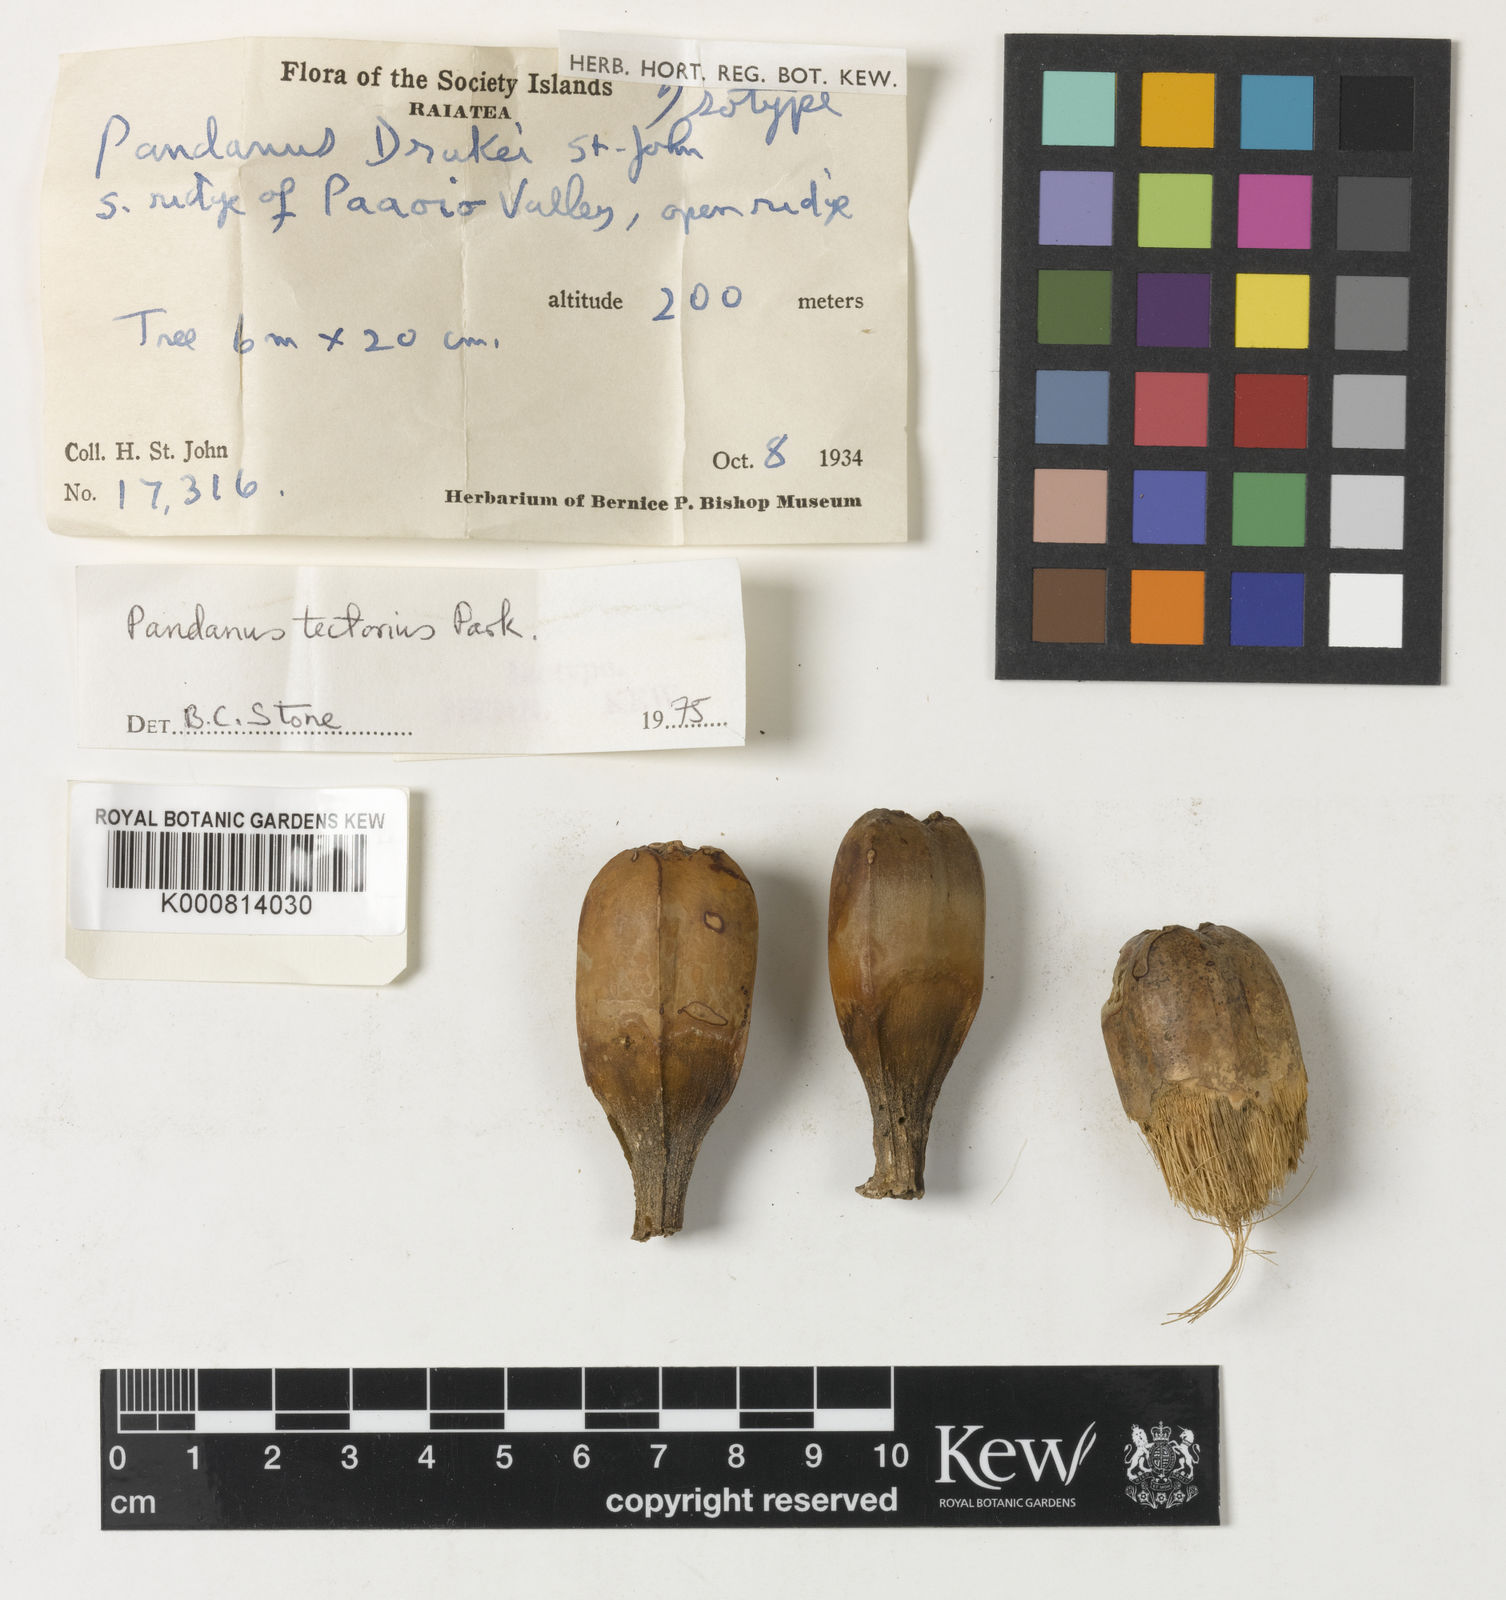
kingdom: Plantae
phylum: Tracheophyta
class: Liliopsida
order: Pandanales
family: Pandanaceae
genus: Pandanus
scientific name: Pandanus
